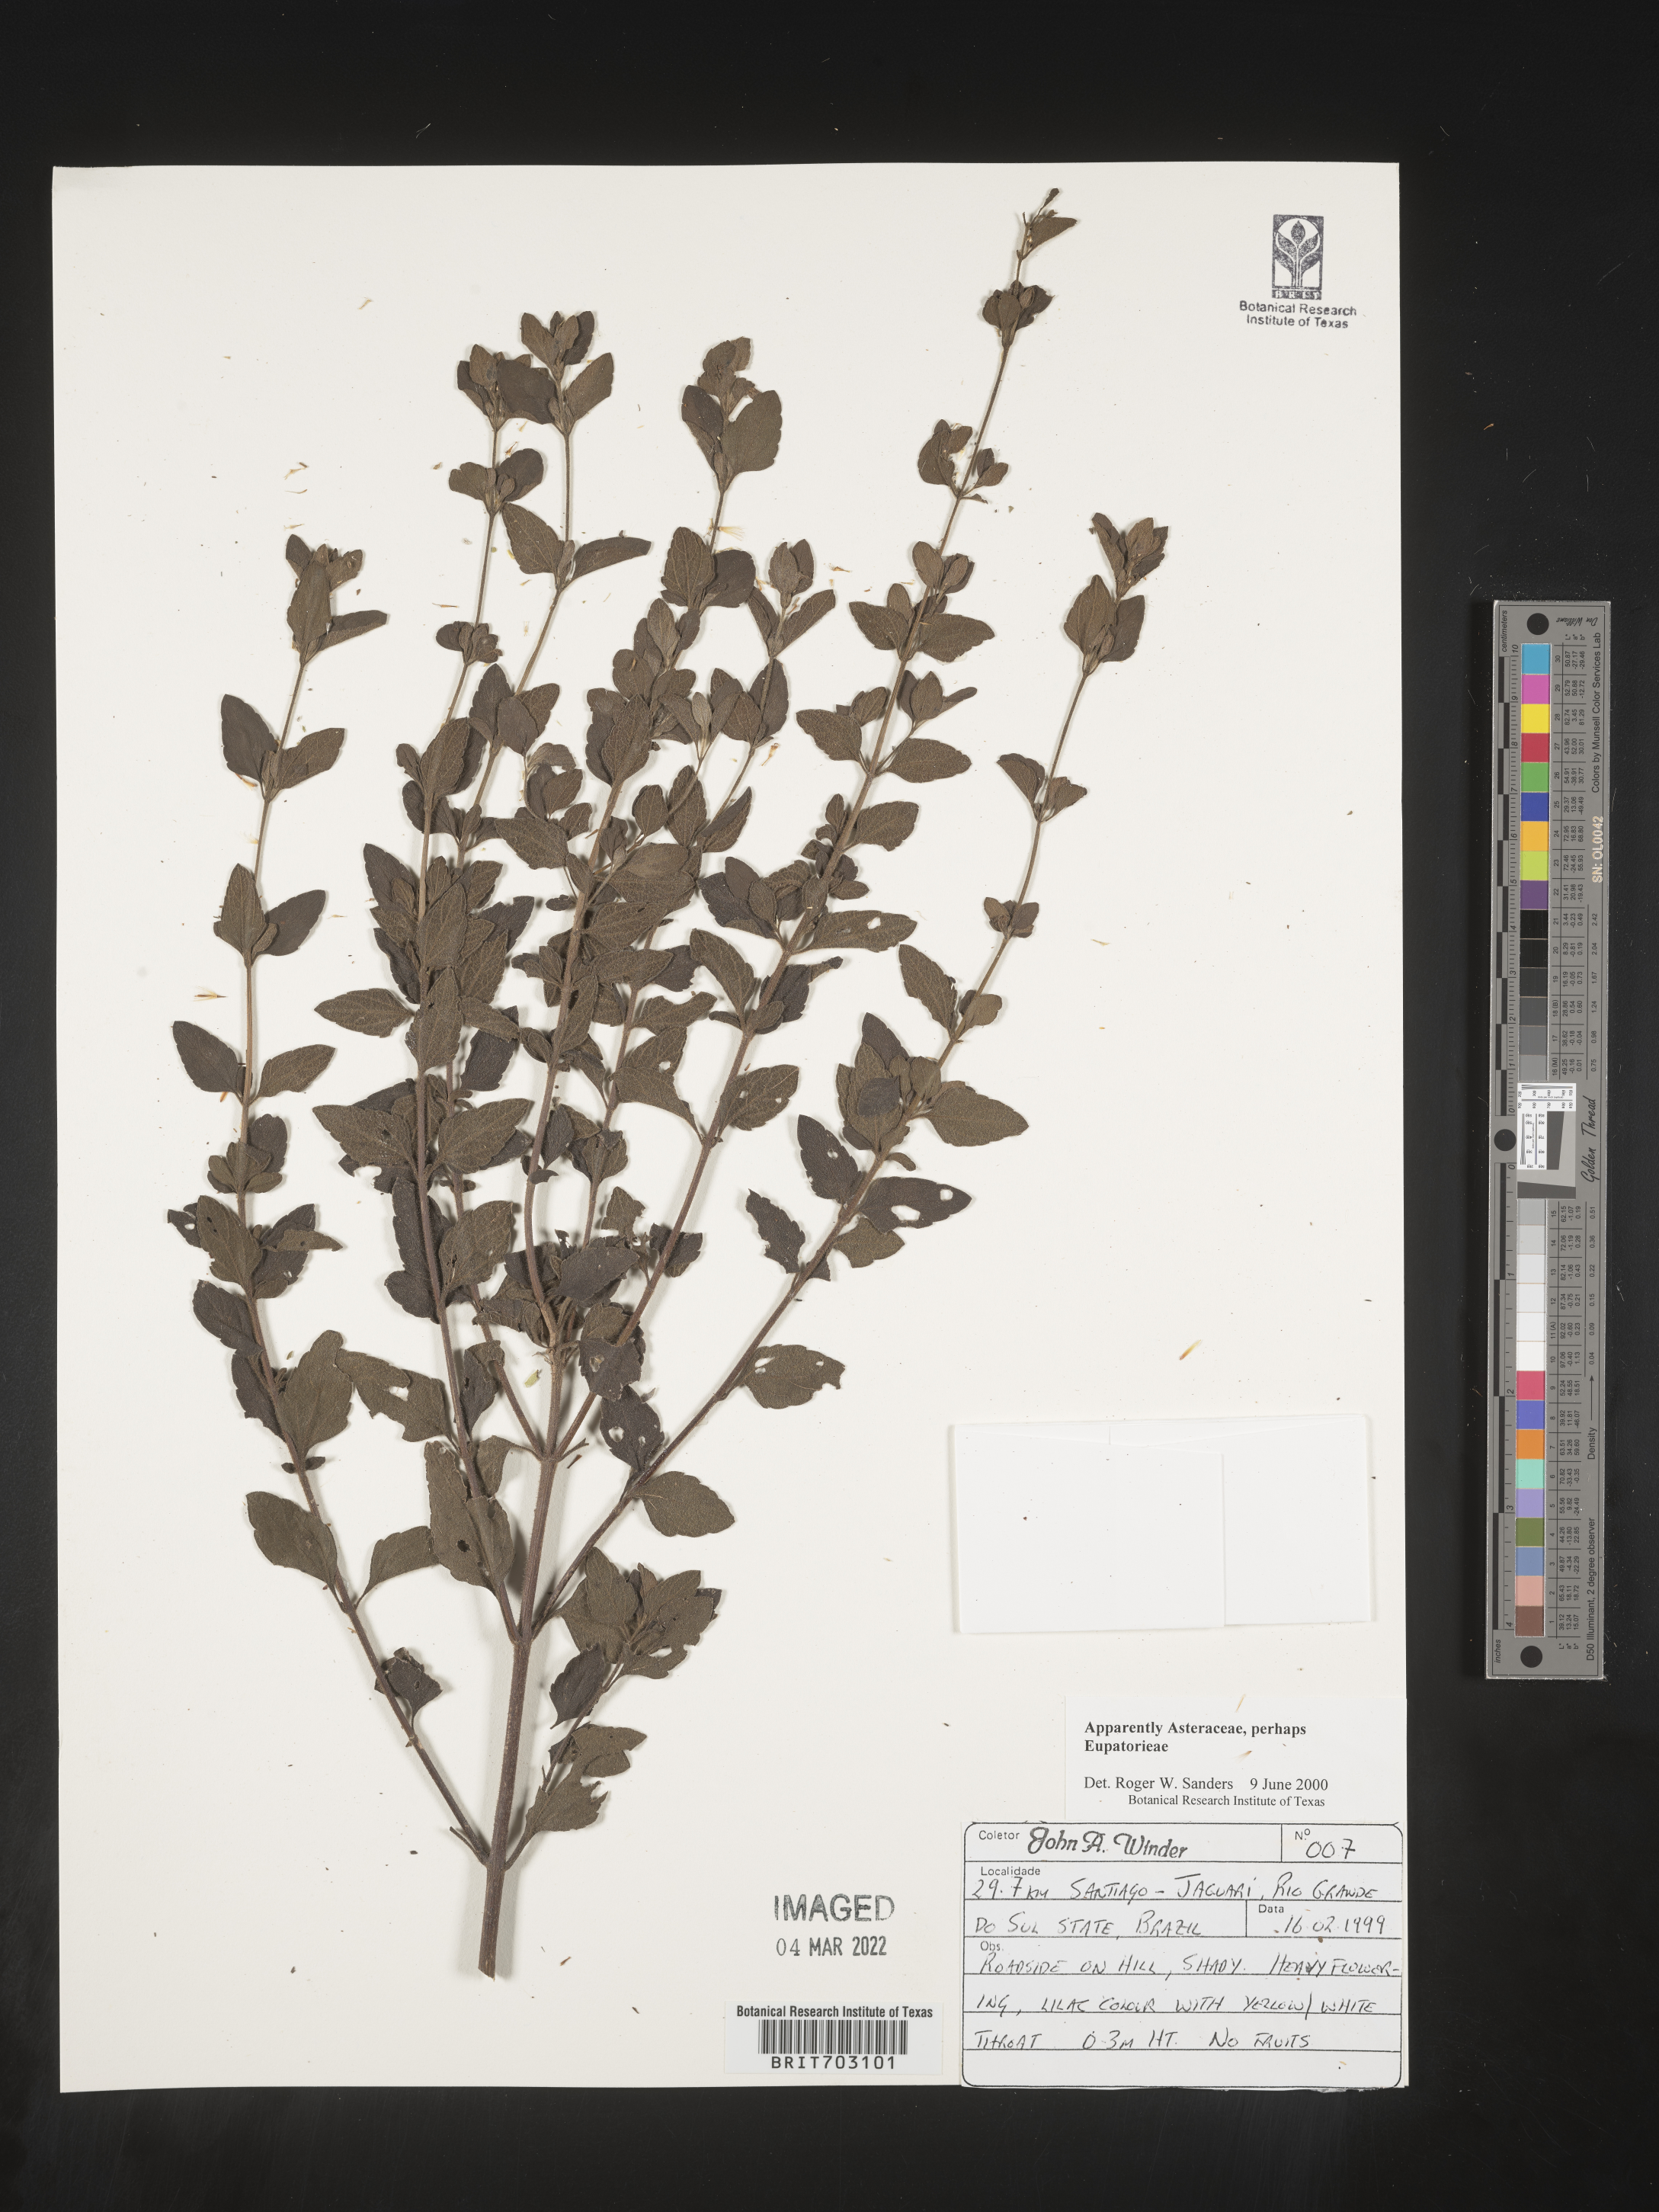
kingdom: Plantae
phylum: Tracheophyta
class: Magnoliopsida
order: Asterales
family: Asteraceae
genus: Eupatorium
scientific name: Eupatorium
